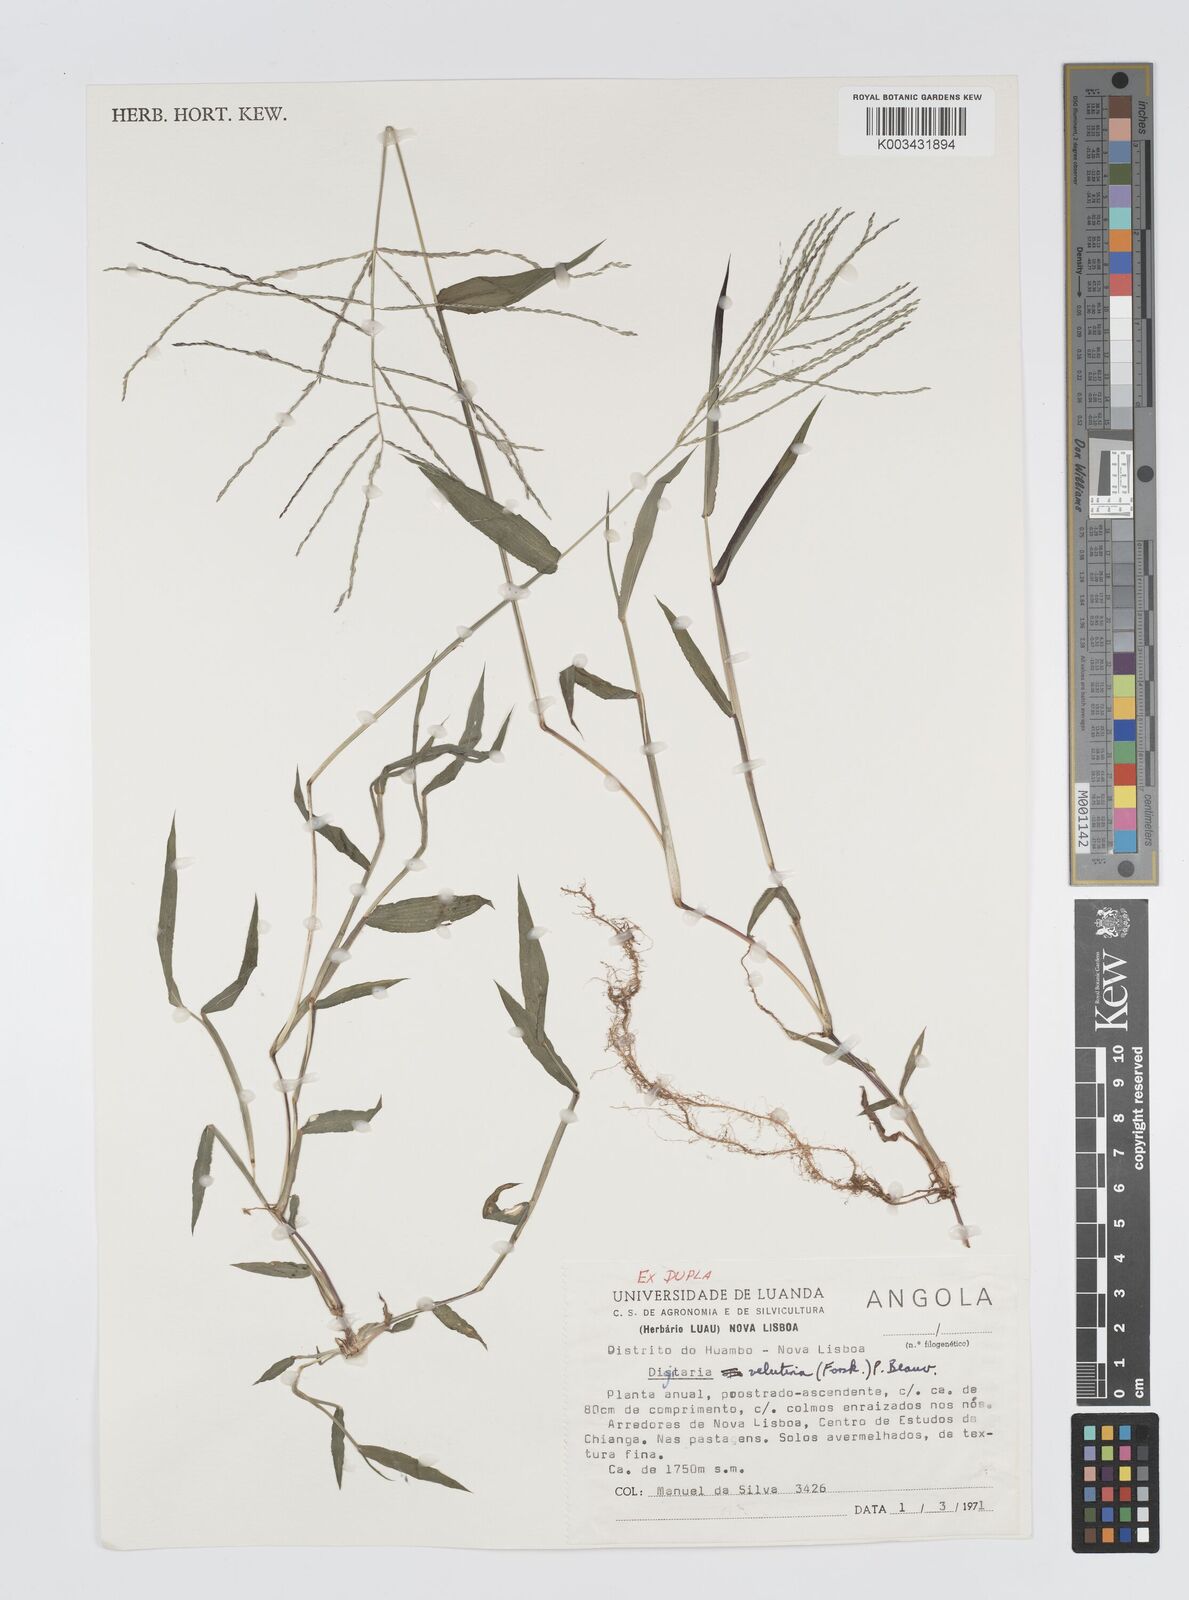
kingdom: Plantae
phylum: Tracheophyta
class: Liliopsida
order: Poales
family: Poaceae
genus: Digitaria
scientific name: Digitaria velutina
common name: Long-plume finger grass
